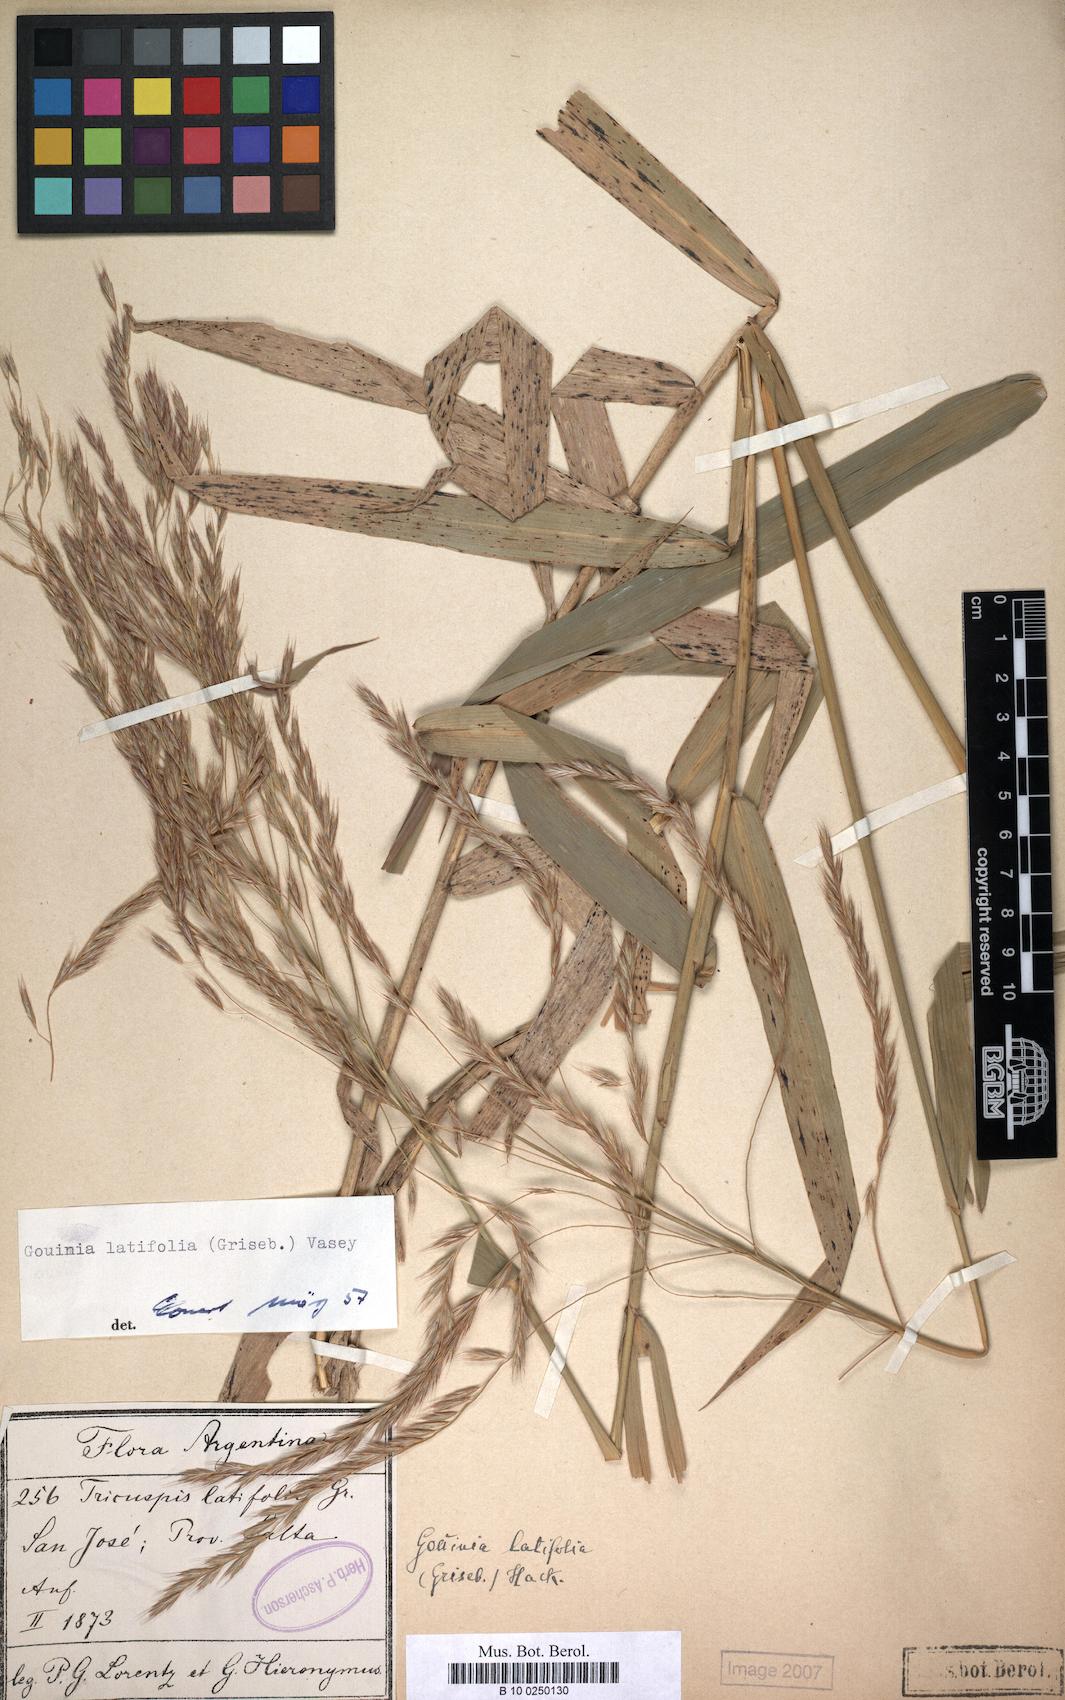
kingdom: Plantae
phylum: Tracheophyta
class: Liliopsida
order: Poales
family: Poaceae
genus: Gouinia
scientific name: Gouinia latifolia
